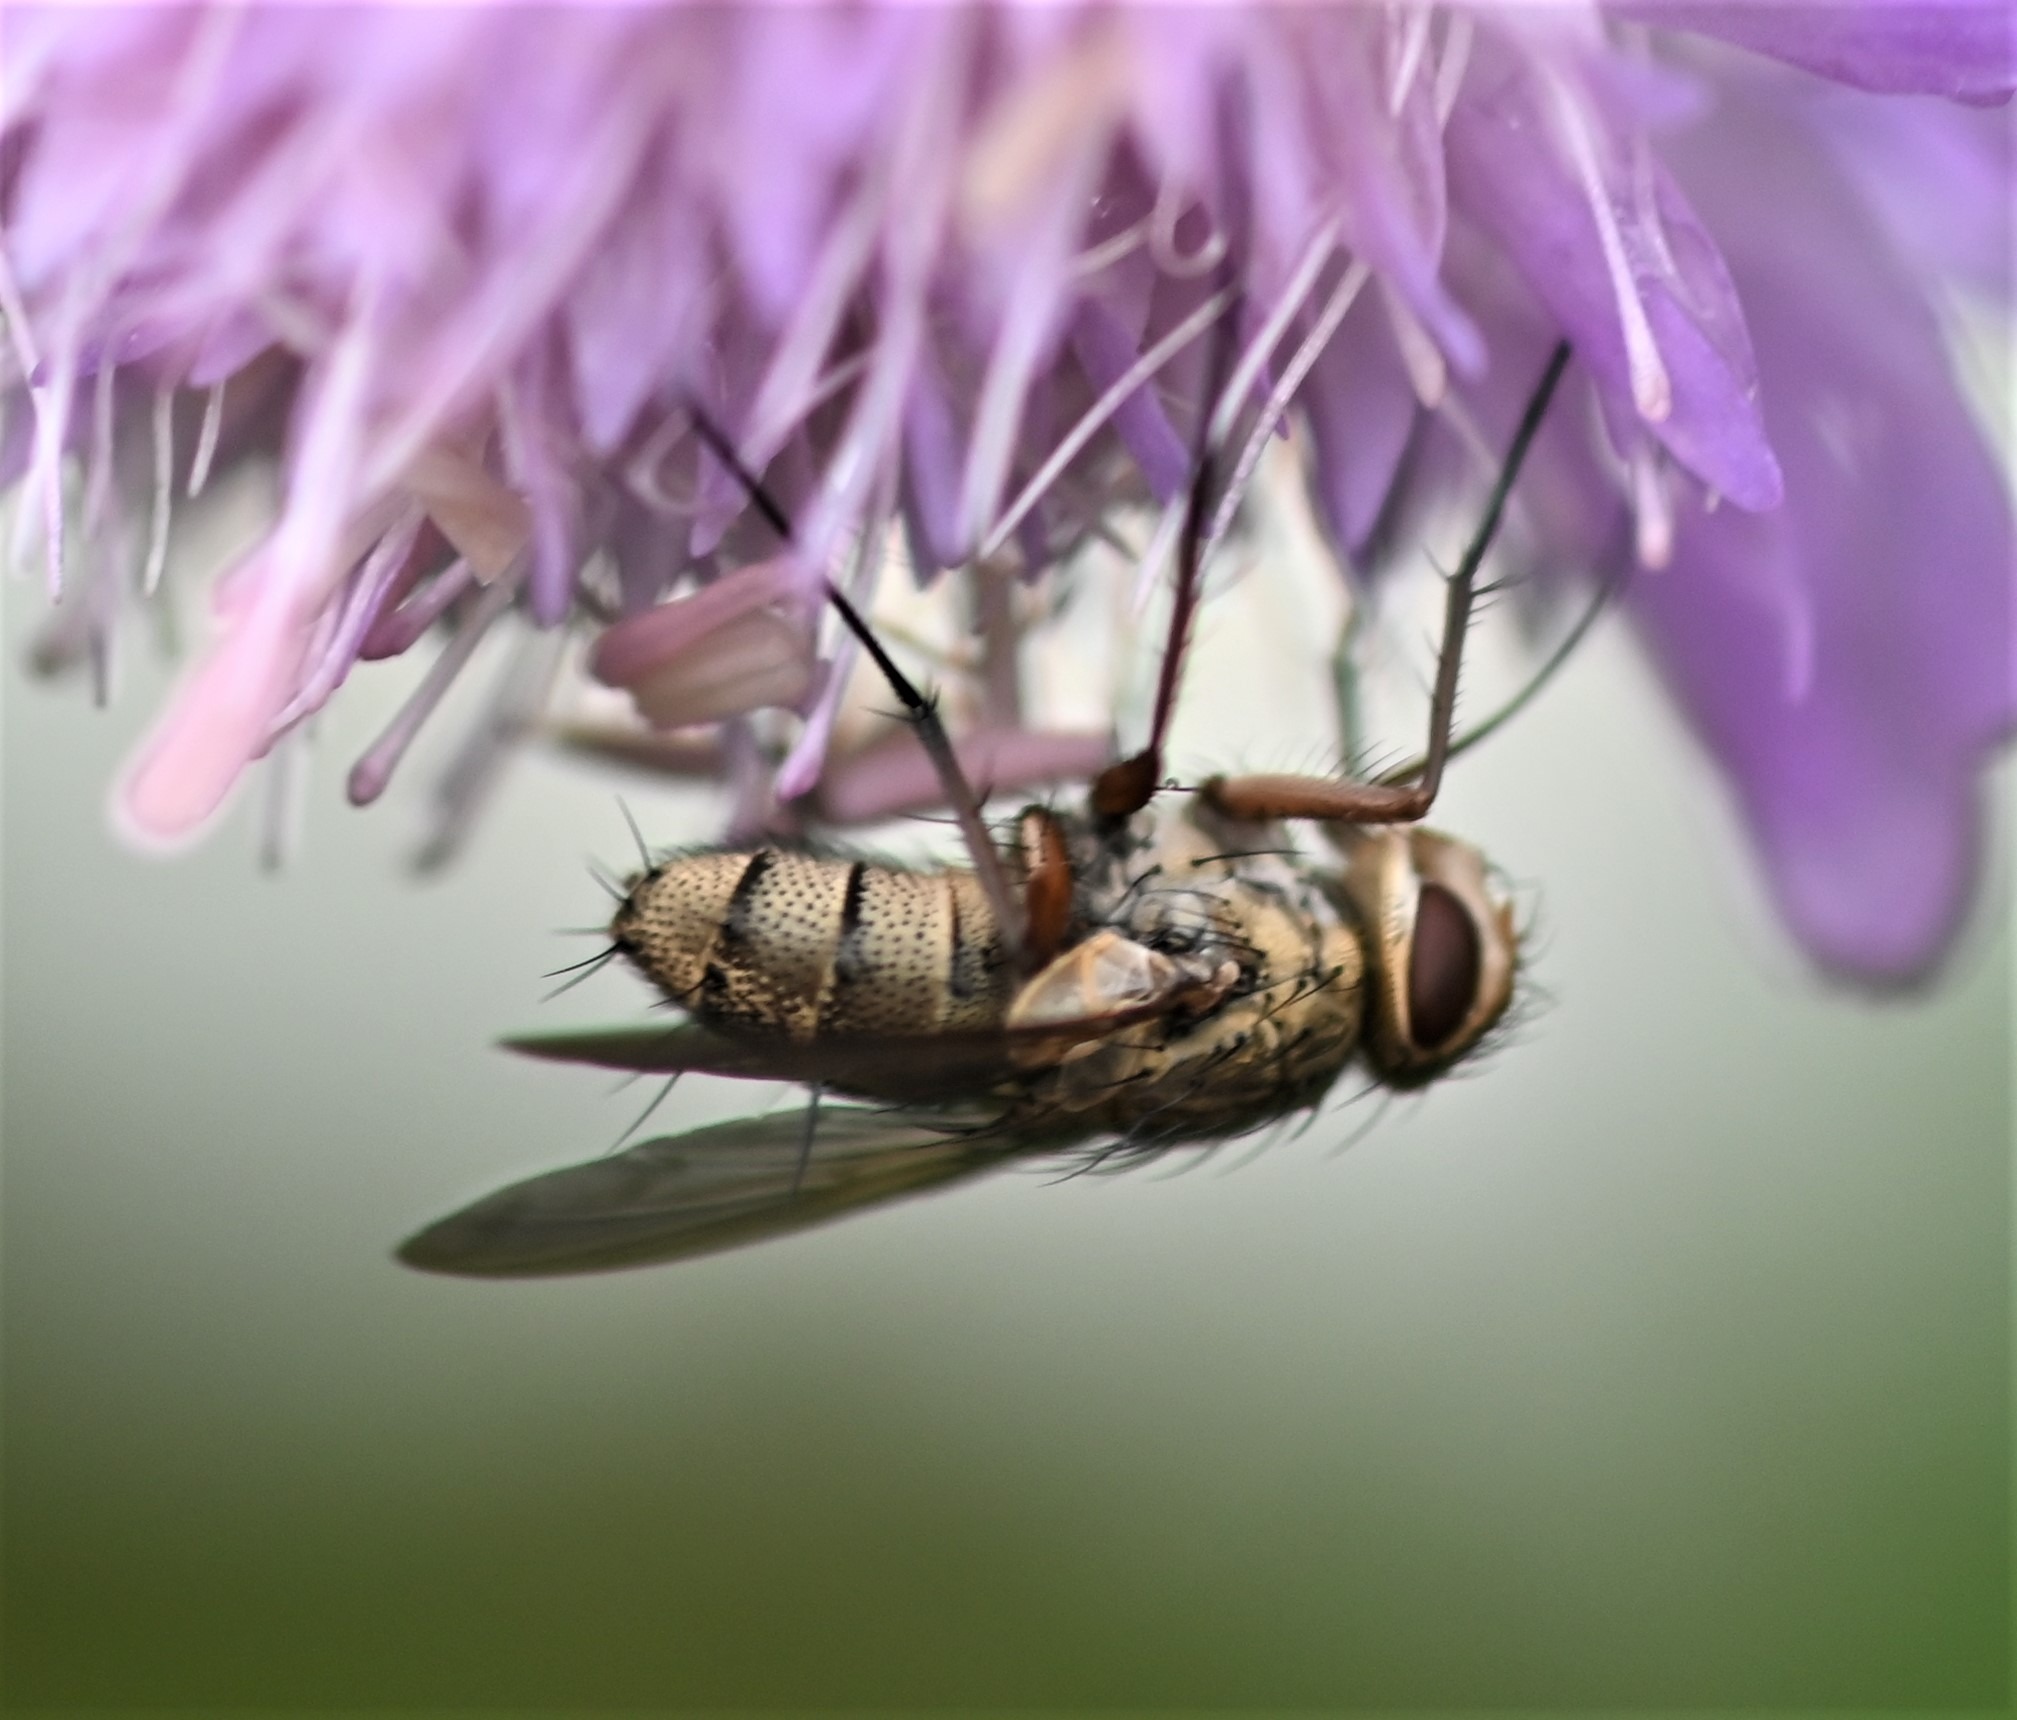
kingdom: Animalia
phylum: Arthropoda
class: Insecta
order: Diptera
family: Tachinidae
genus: Prosena
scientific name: Prosena siberita
